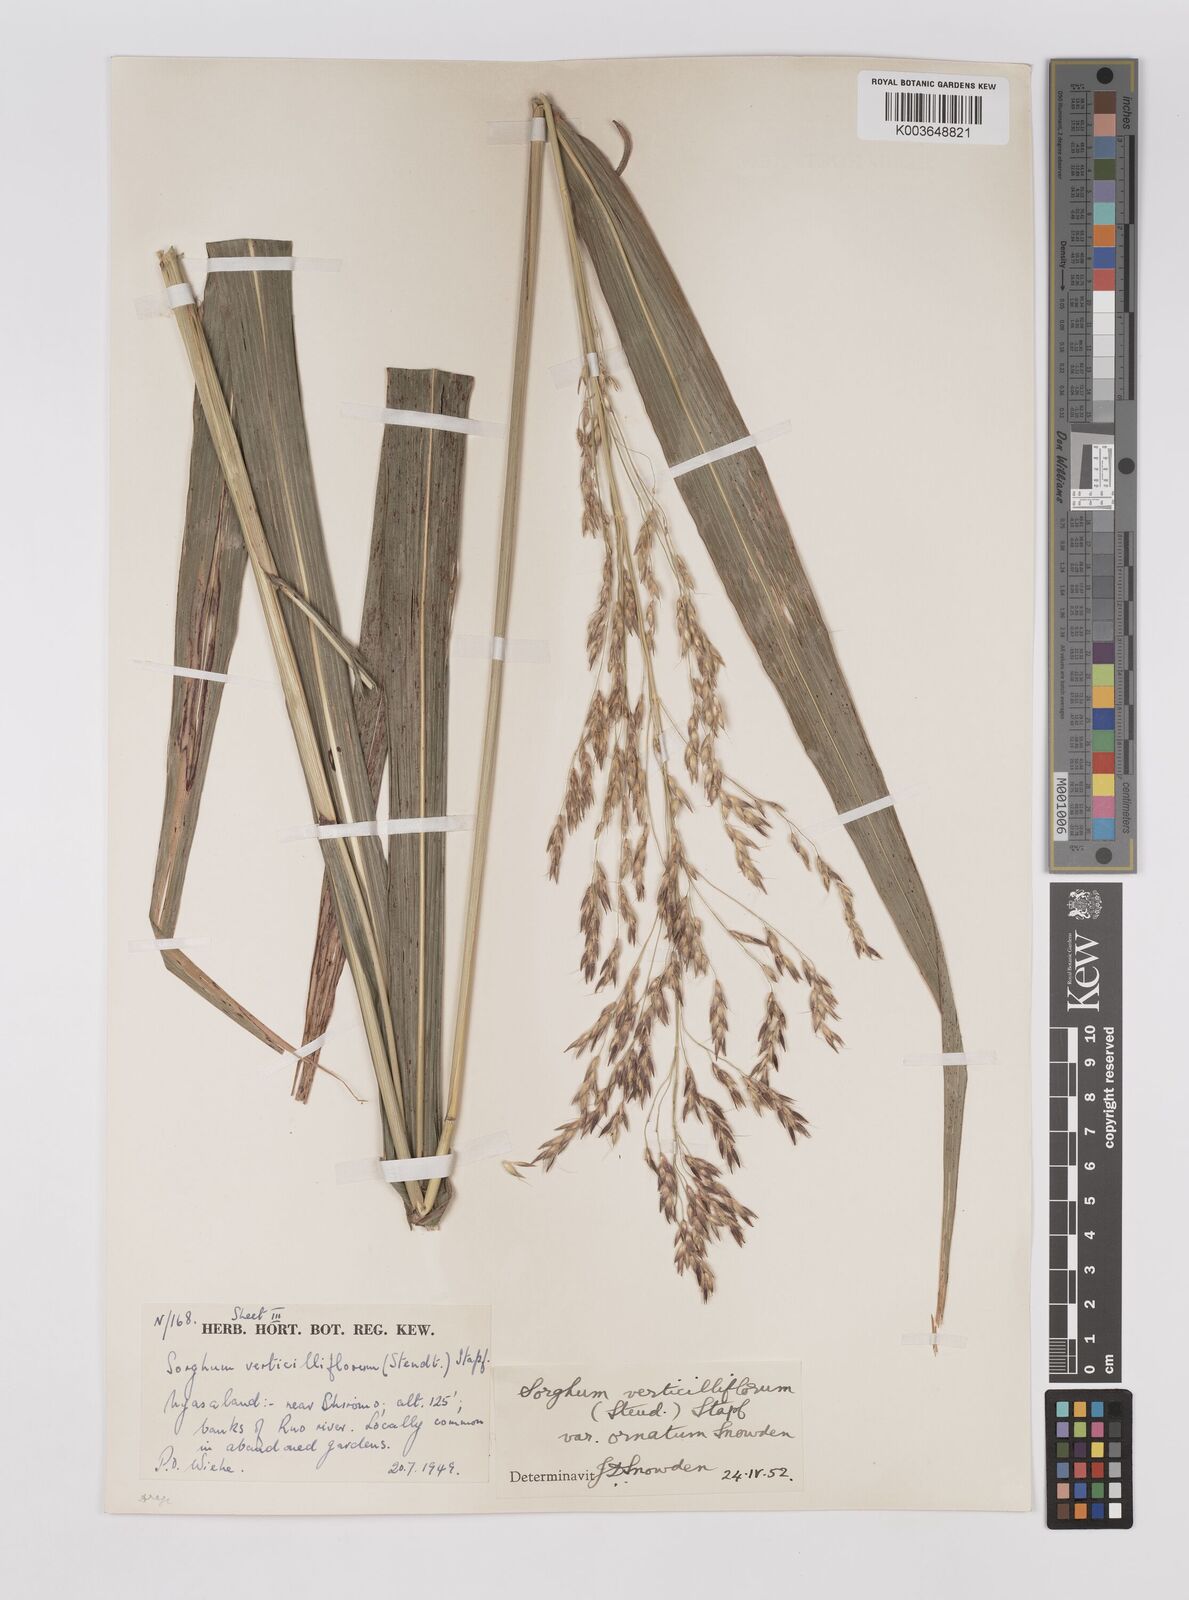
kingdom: Plantae
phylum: Tracheophyta
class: Liliopsida
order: Poales
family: Poaceae
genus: Sorghum
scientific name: Sorghum arundinaceum
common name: Sorghum
